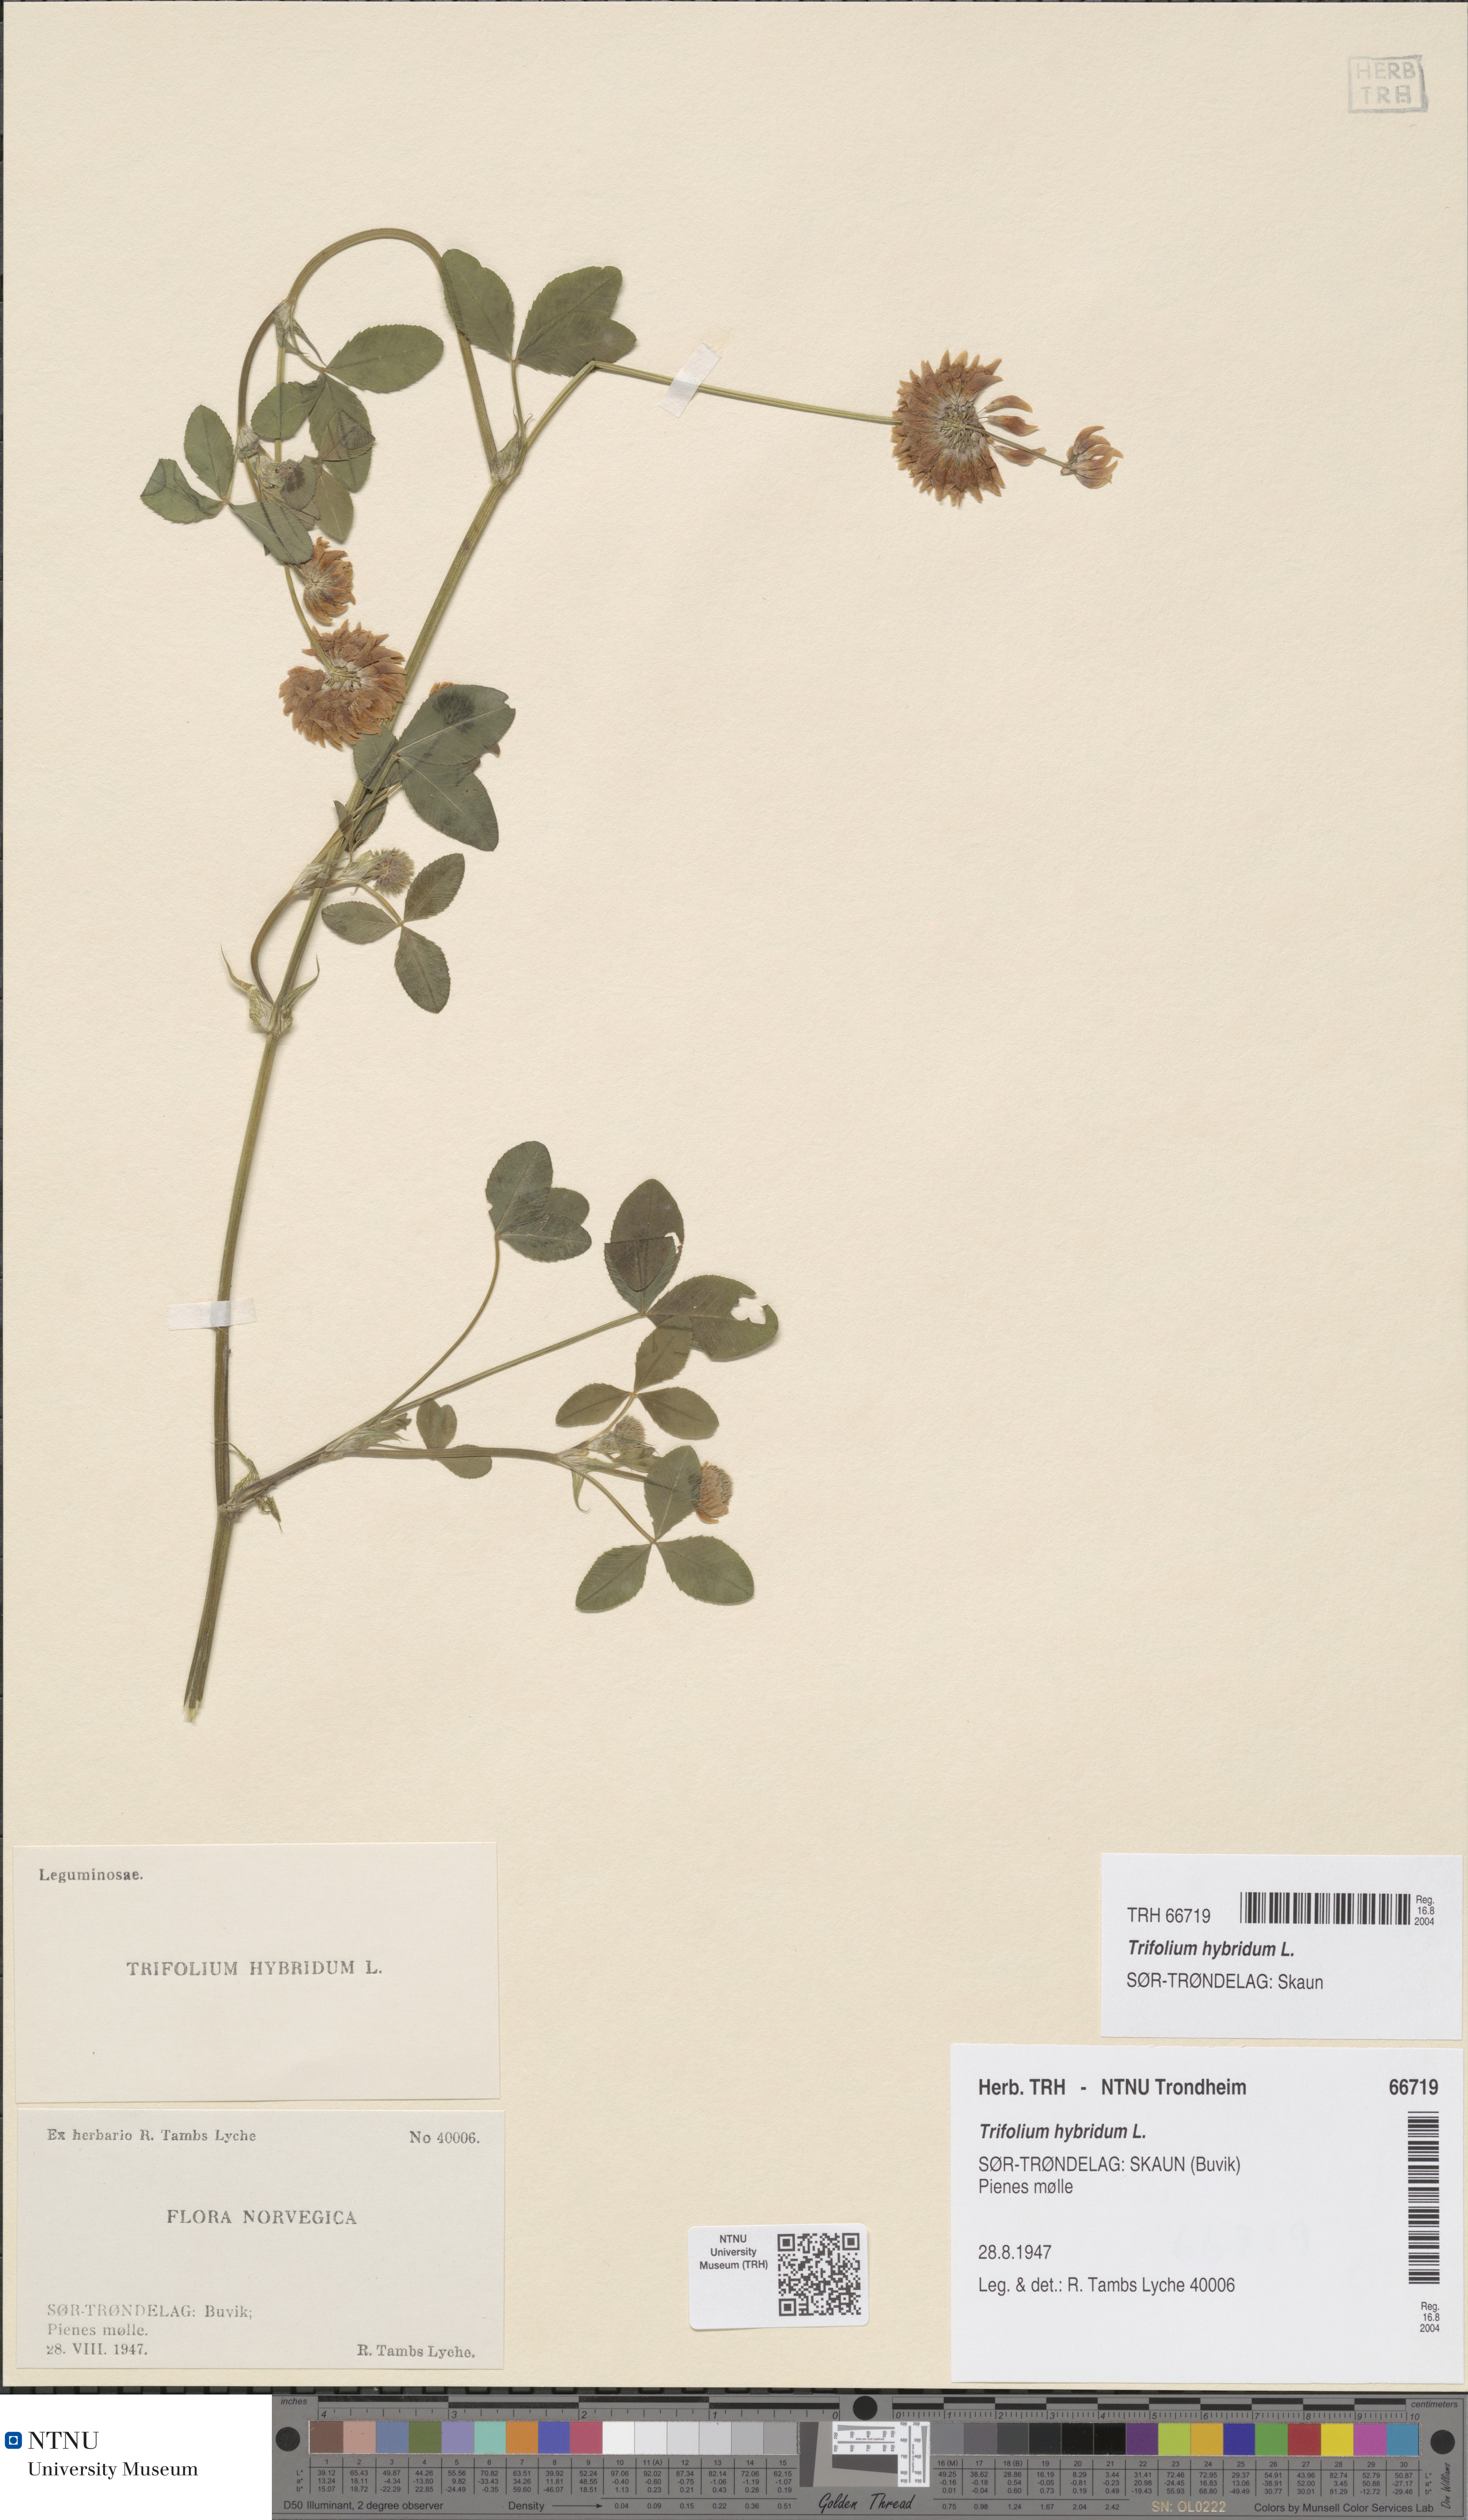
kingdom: Plantae
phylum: Tracheophyta
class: Magnoliopsida
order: Fabales
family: Fabaceae
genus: Trifolium
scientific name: Trifolium hybridum
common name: Alsike clover
